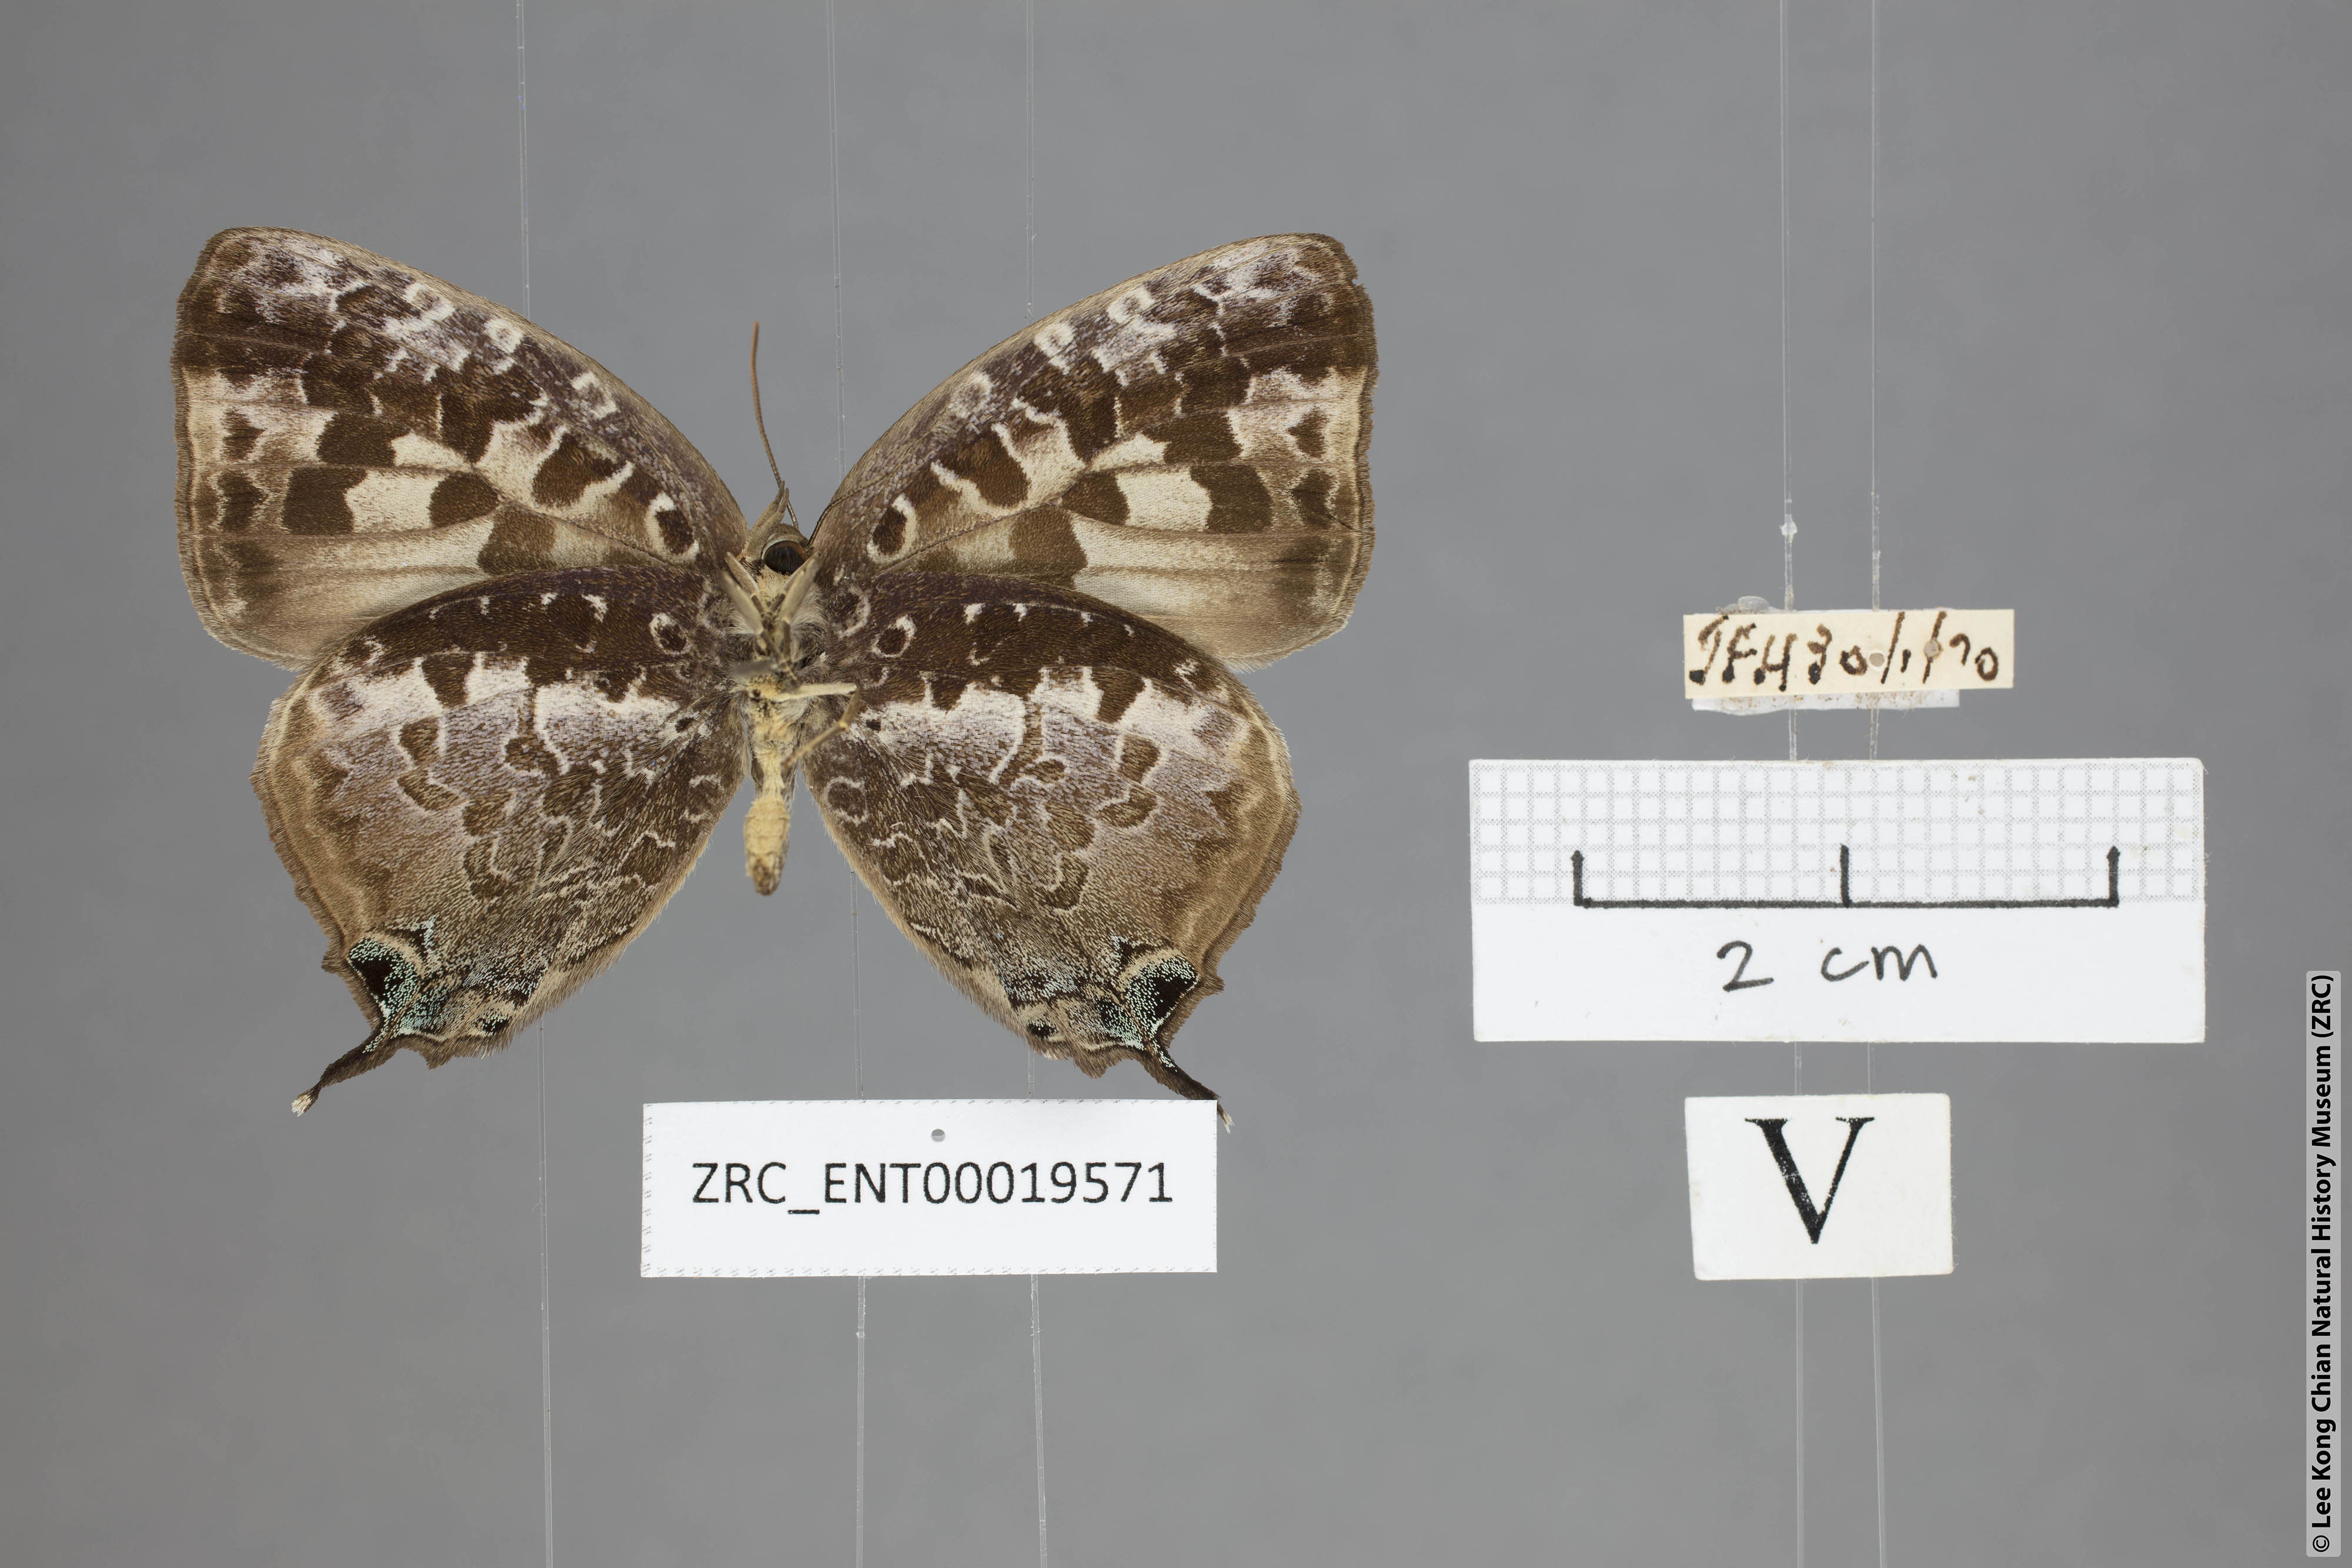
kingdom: Animalia
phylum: Arthropoda
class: Insecta
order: Lepidoptera
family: Lycaenidae
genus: Arhopala
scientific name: Arhopala ijauensis
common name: White-banded oakblue
